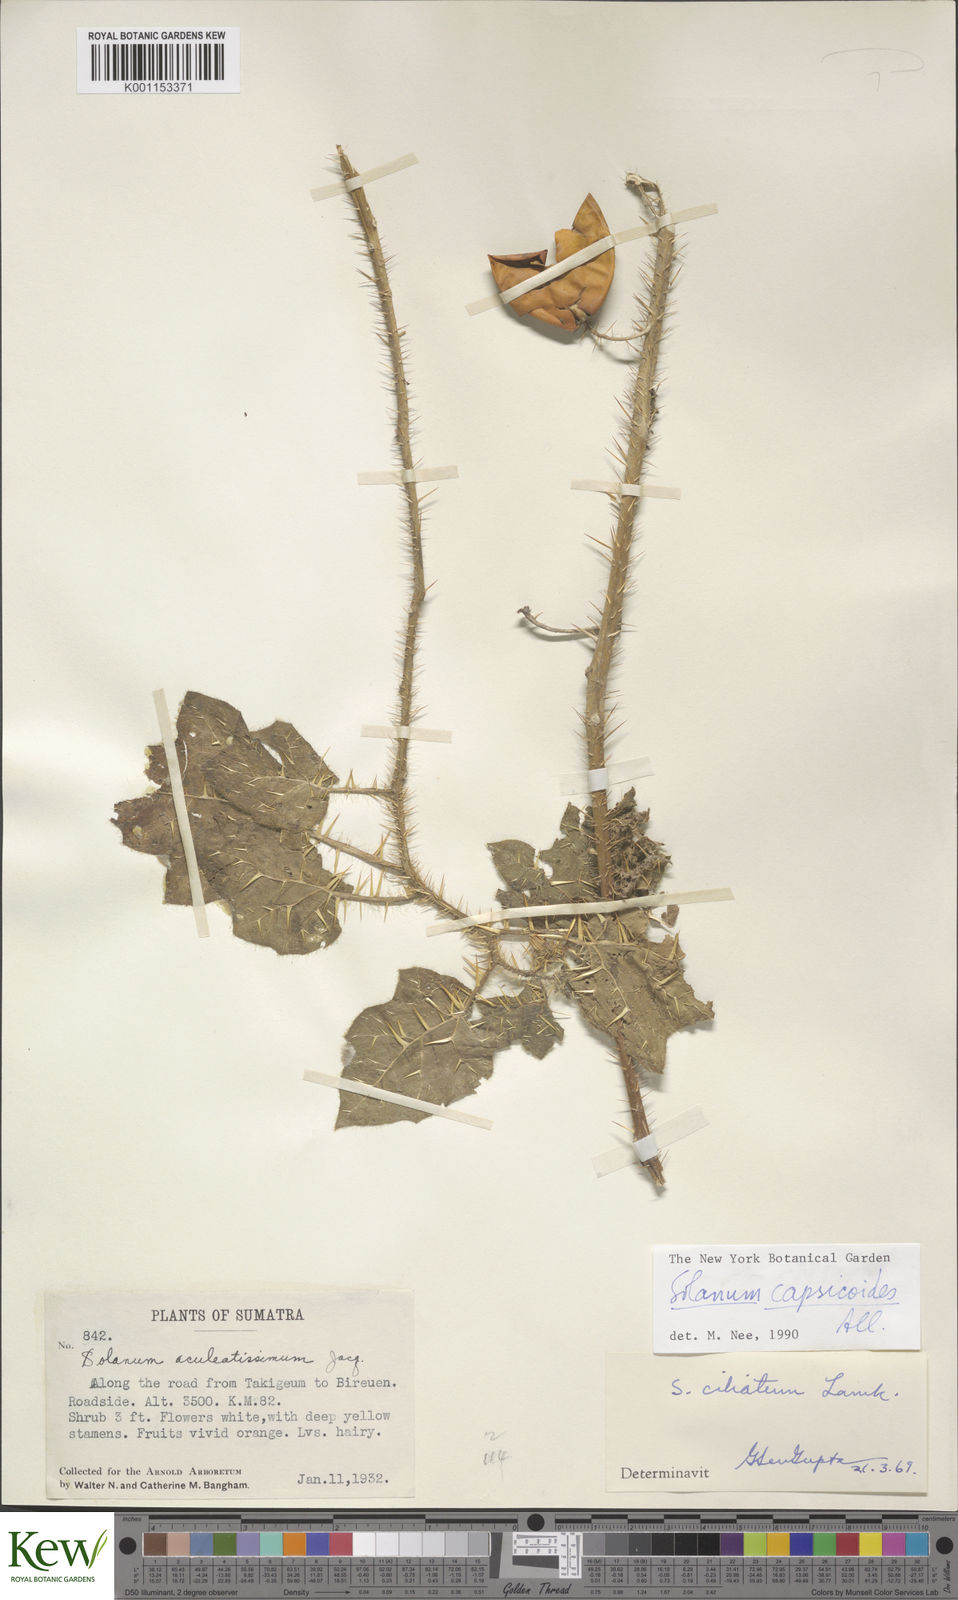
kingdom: Plantae
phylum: Tracheophyta
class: Magnoliopsida
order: Solanales
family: Solanaceae
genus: Solanum
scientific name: Solanum aculeatissimum
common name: Dutch eggplant
